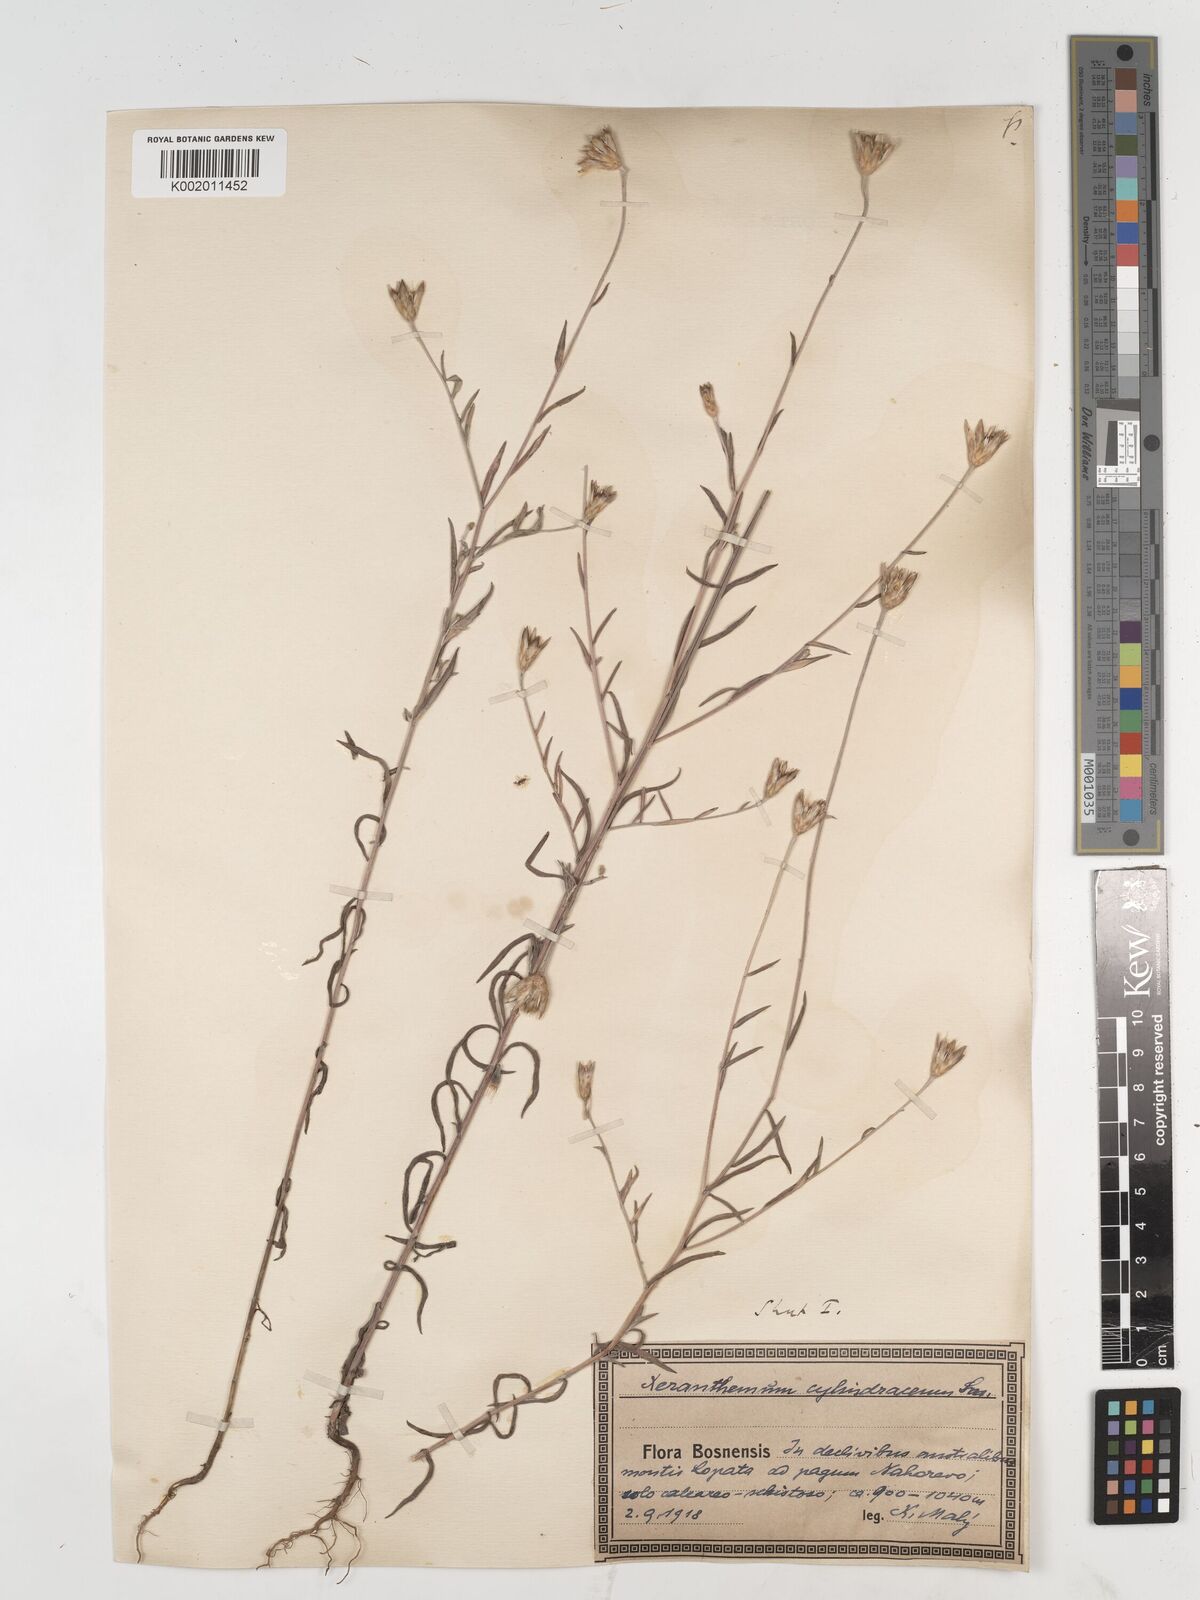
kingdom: Plantae
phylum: Tracheophyta
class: Magnoliopsida
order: Asterales
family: Asteraceae
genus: Xeranthemum
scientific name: Xeranthemum cylindraceum
